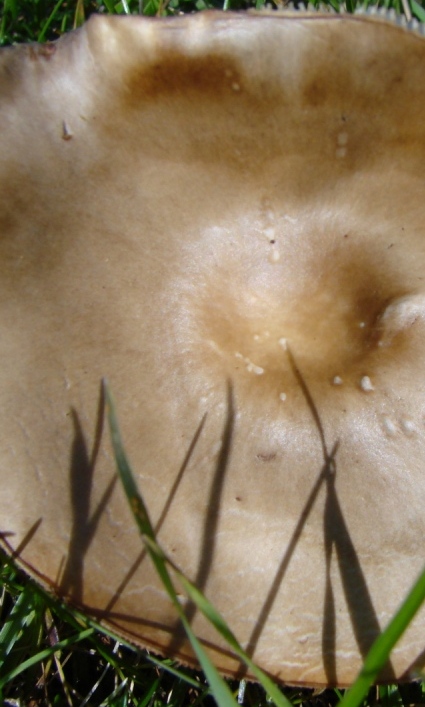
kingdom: Fungi
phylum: Basidiomycota
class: Agaricomycetes
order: Agaricales
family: Tricholomataceae
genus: Melanoleuca
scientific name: Melanoleuca cognata
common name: gyldengrå munkehat
